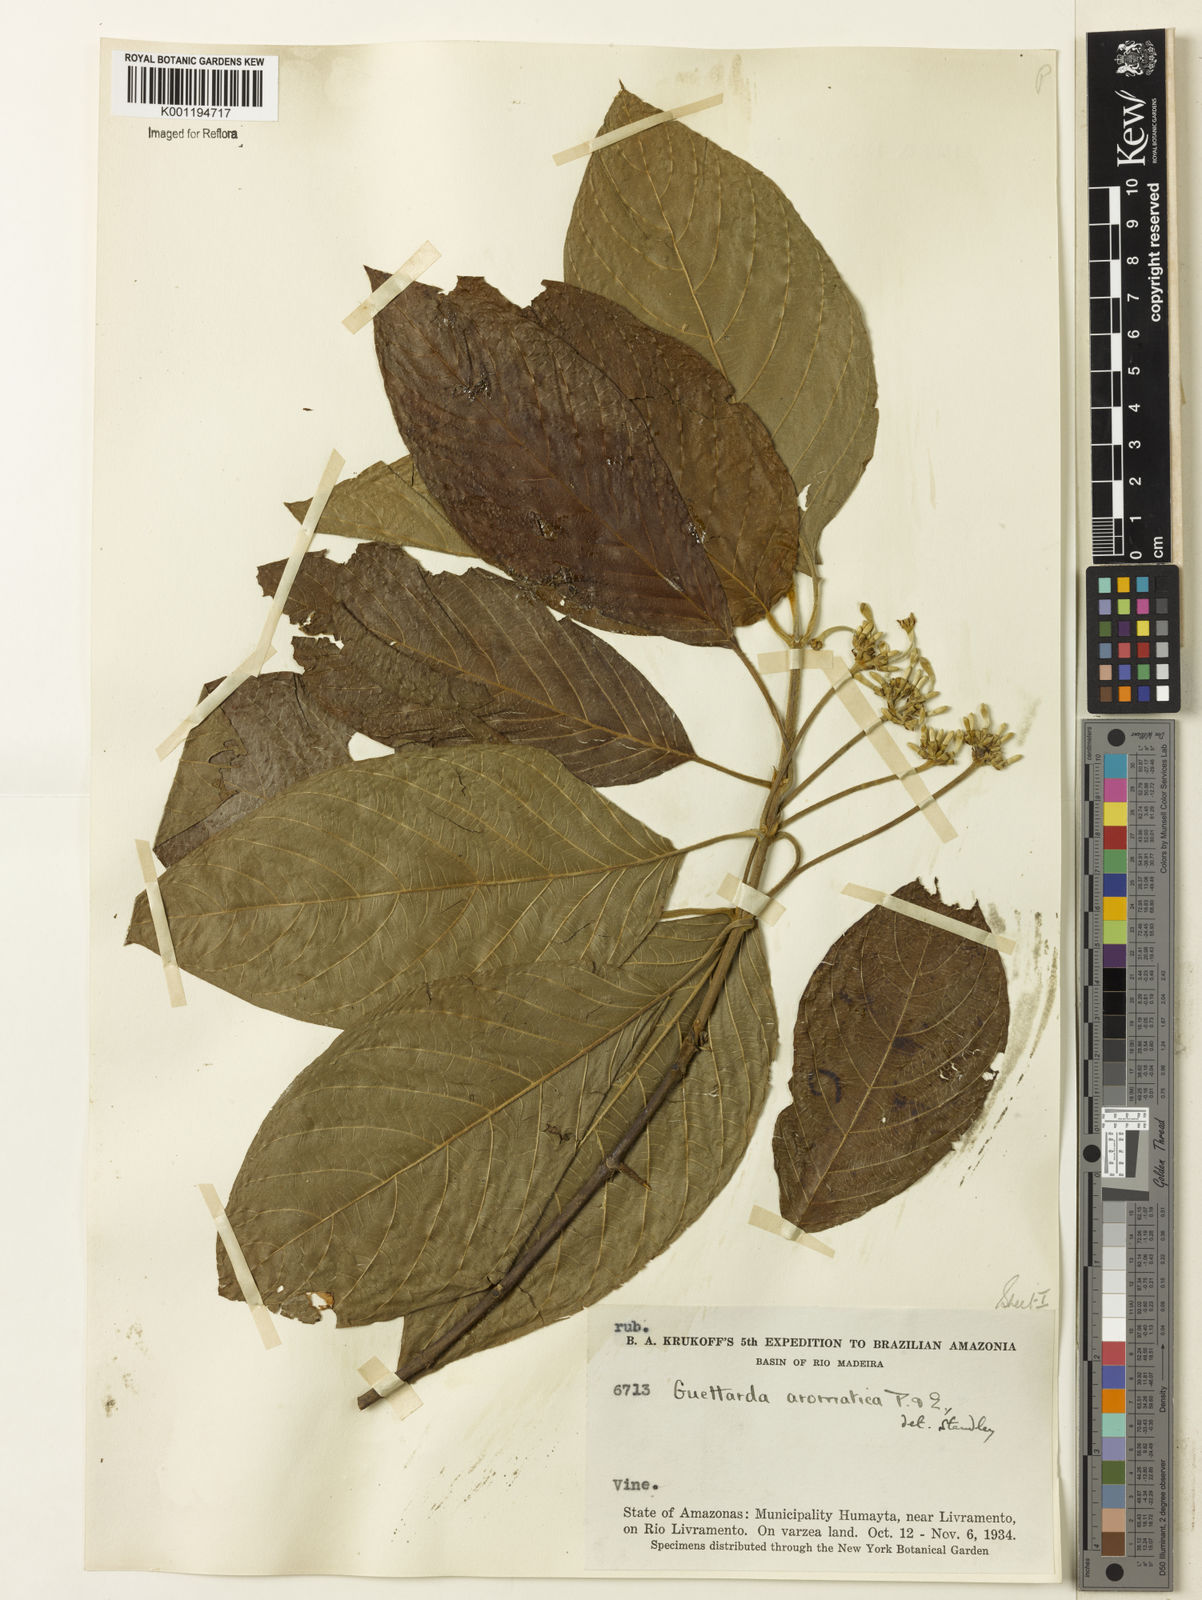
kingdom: Plantae
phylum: Tracheophyta
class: Magnoliopsida
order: Gentianales
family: Rubiaceae
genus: Guettarda
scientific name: Guettarda aromatica
